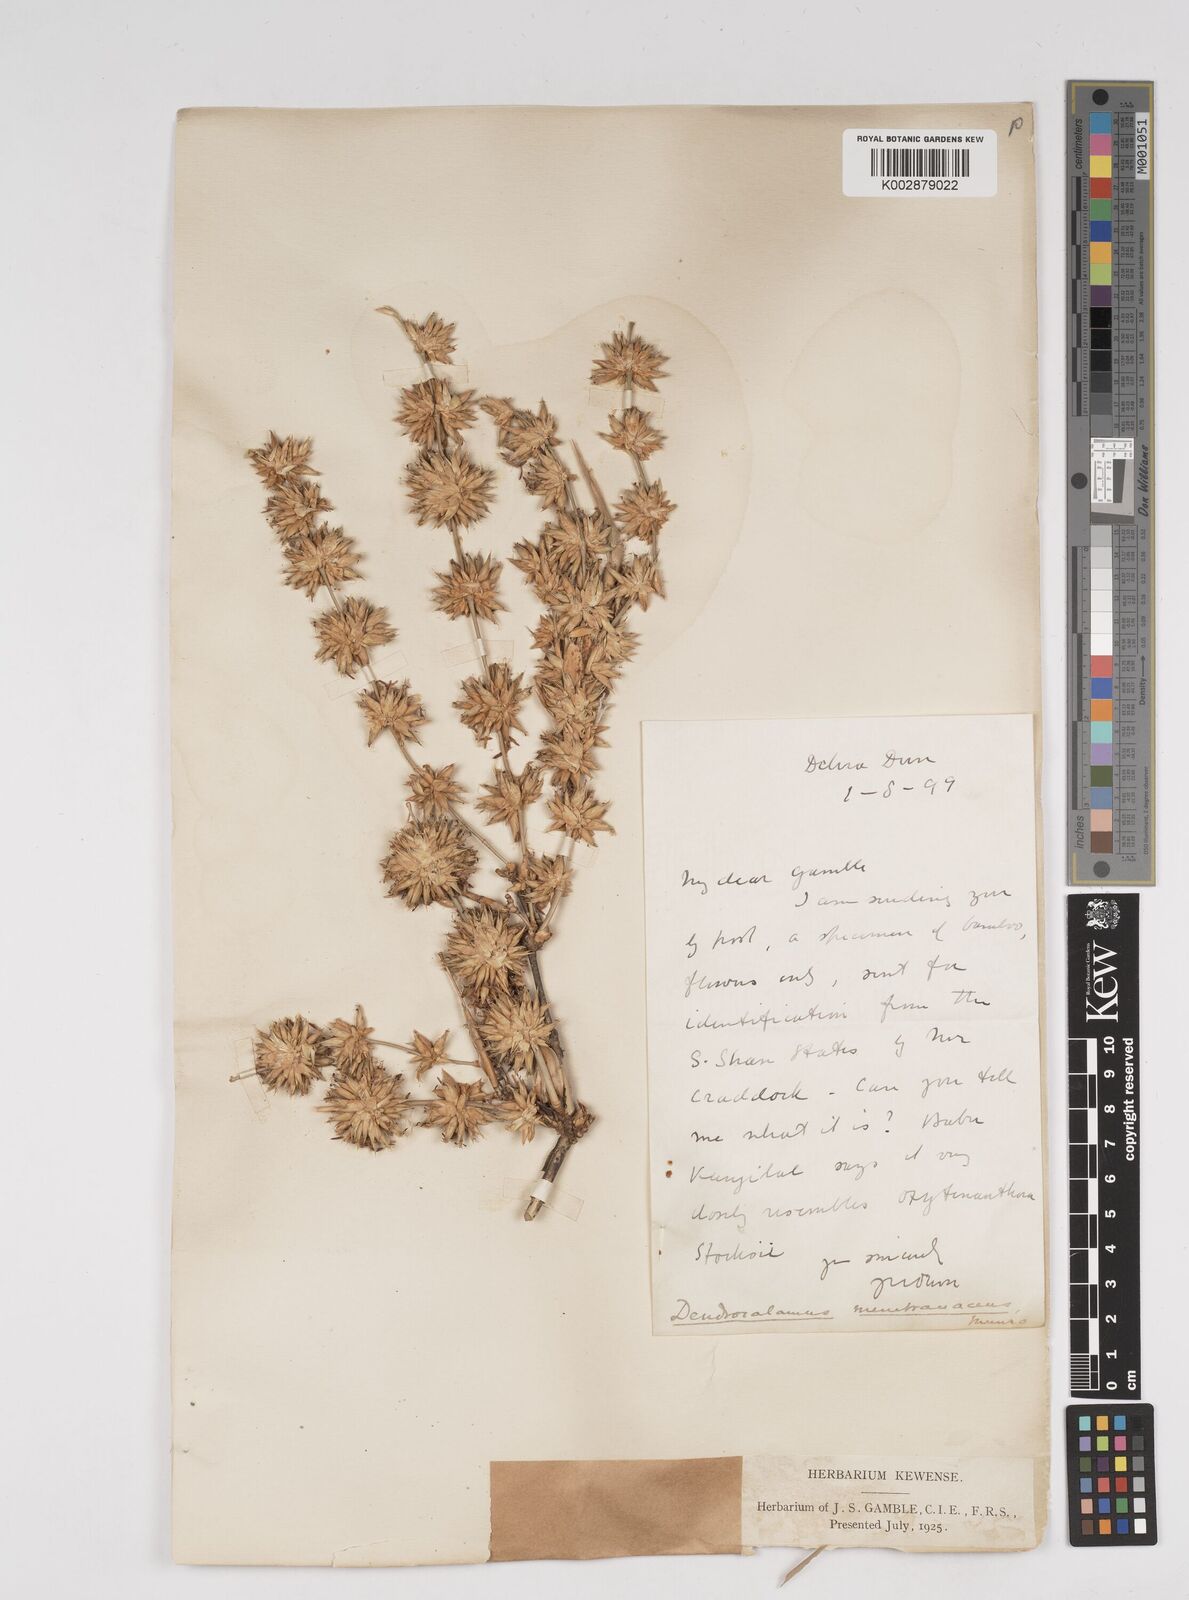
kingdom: Plantae
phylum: Tracheophyta
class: Liliopsida
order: Poales
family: Poaceae
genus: Dendrocalamus
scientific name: Dendrocalamus membranaceus
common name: White bamboo
